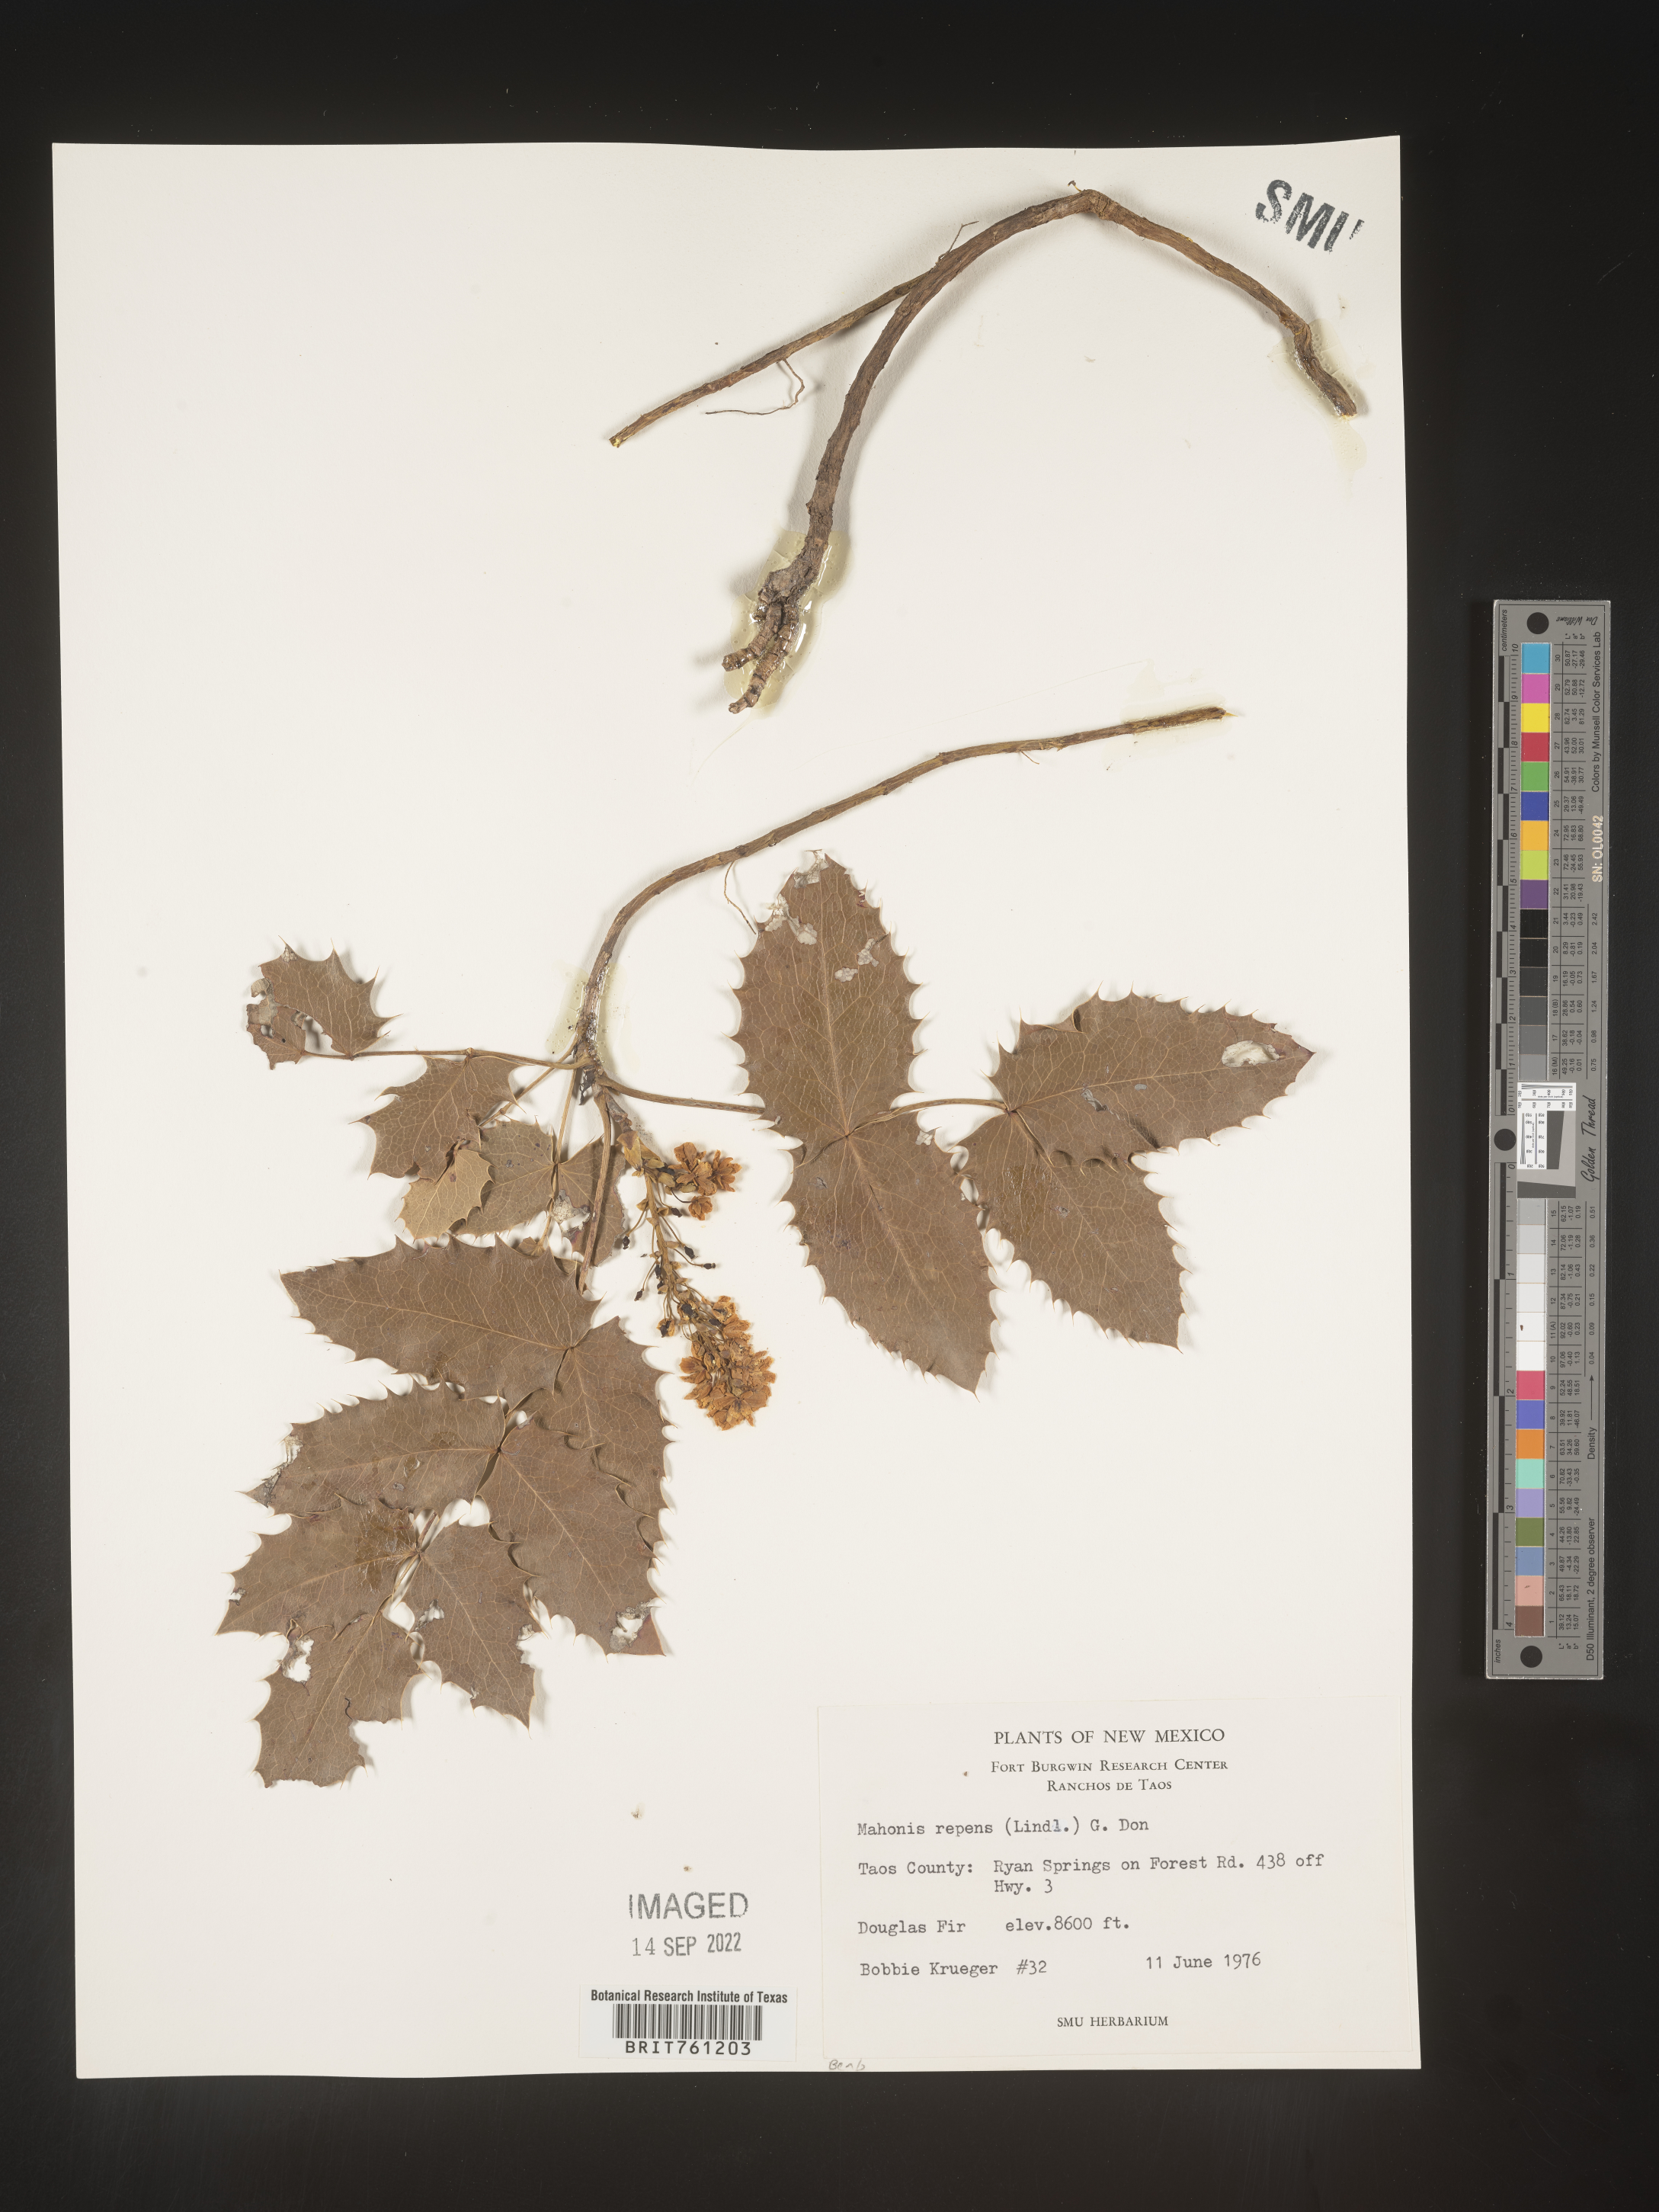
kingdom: Plantae
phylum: Tracheophyta
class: Magnoliopsida
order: Ranunculales
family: Berberidaceae
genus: Mahonia
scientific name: Mahonia repens
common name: Creeping oregon-grape
